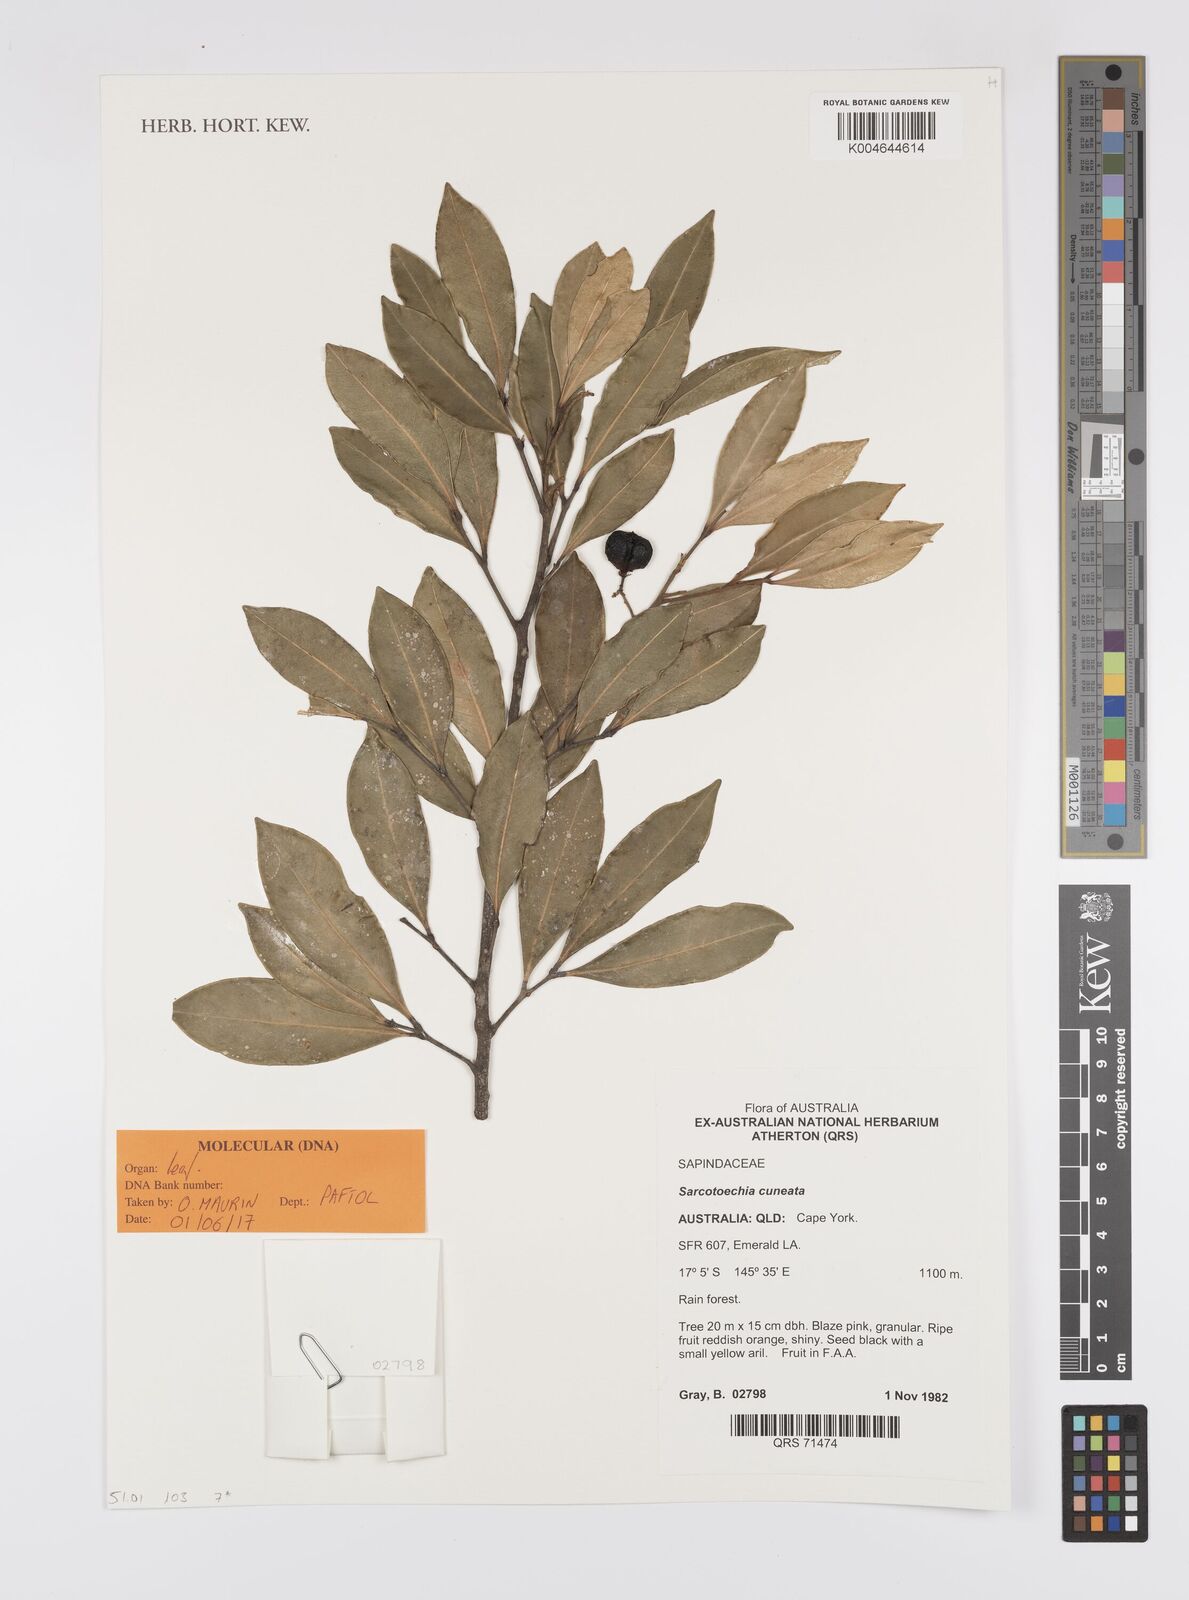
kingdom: Plantae
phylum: Tracheophyta
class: Magnoliopsida
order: Sapindales
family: Sapindaceae
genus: Sarcotoechia
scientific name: Sarcotoechia cuneata
